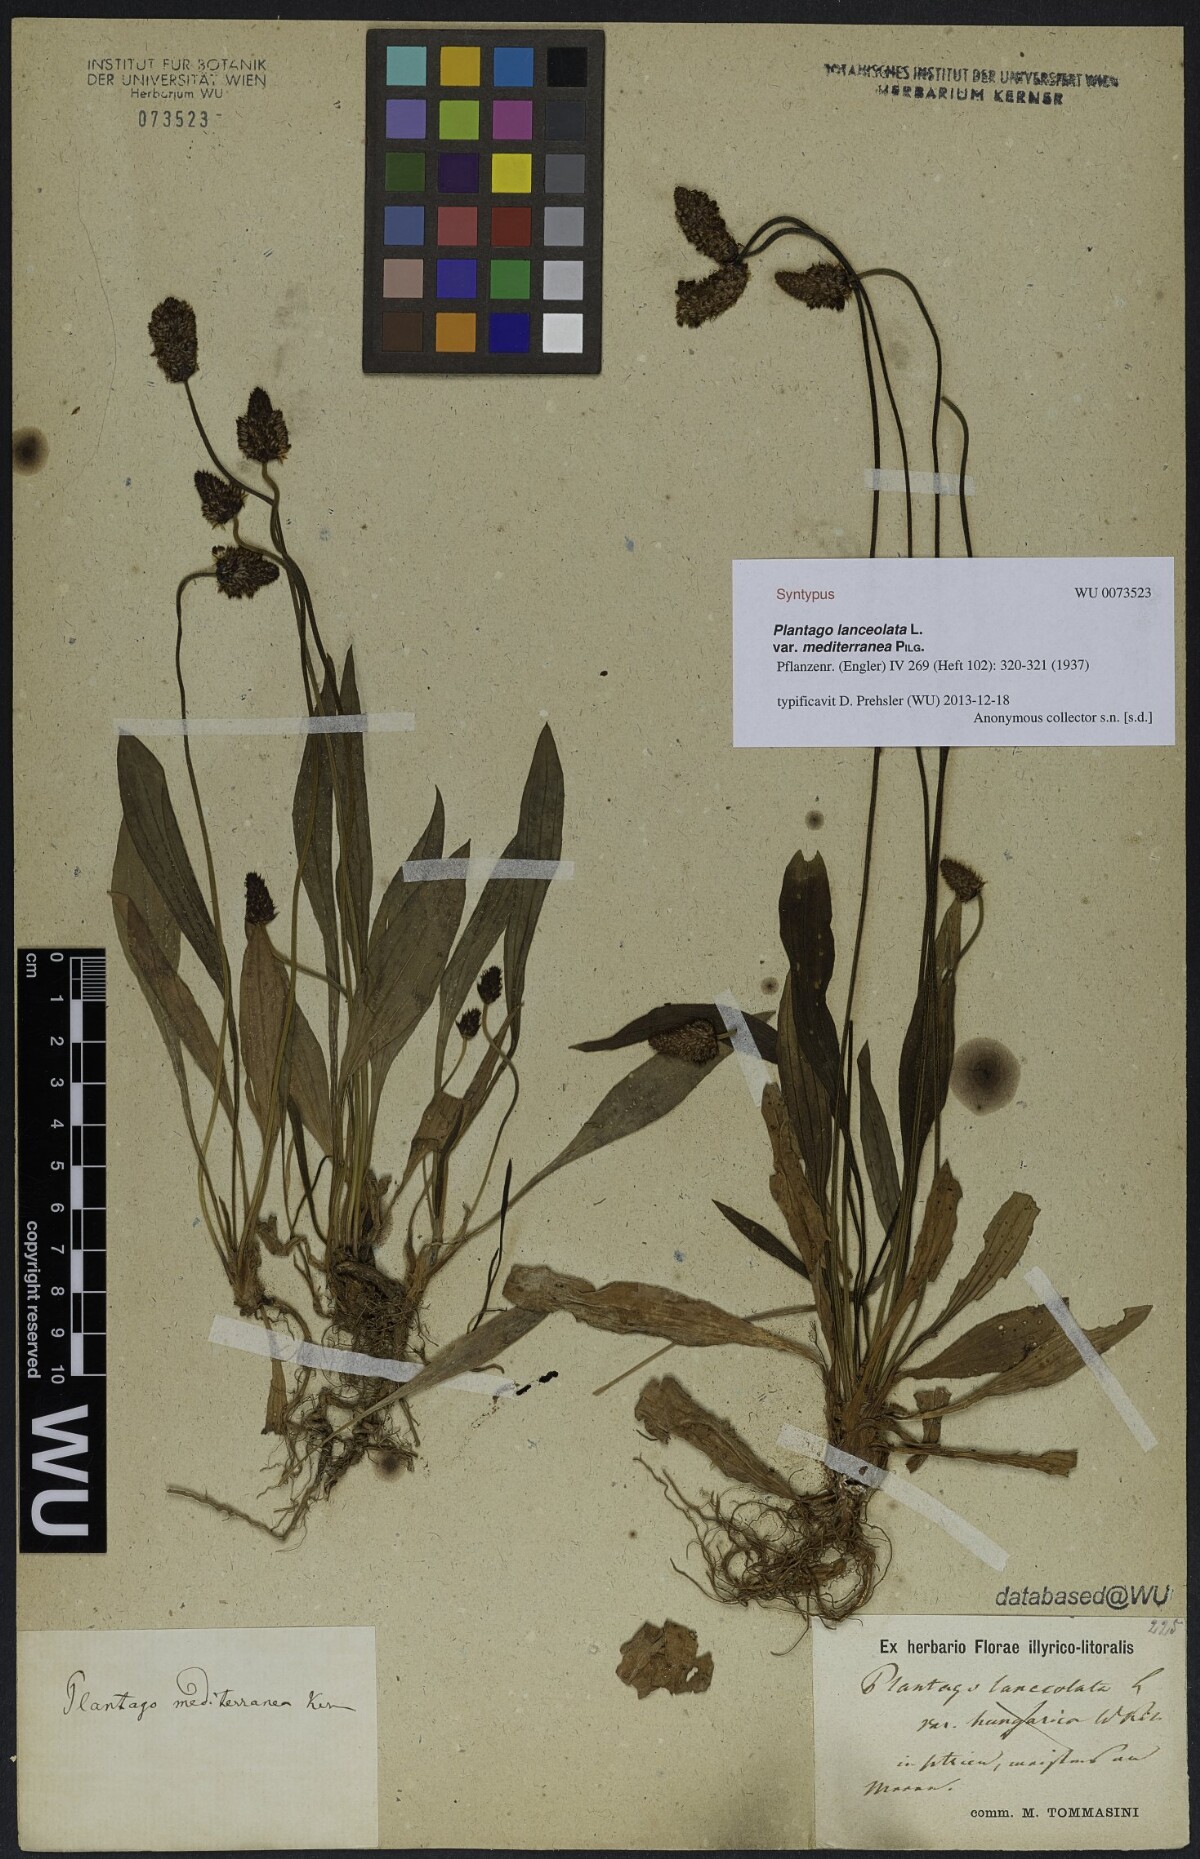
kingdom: Plantae
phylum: Tracheophyta
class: Magnoliopsida
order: Lamiales
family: Plantaginaceae
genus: Plantago
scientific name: Plantago lanceolata
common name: Ribwort plantain
